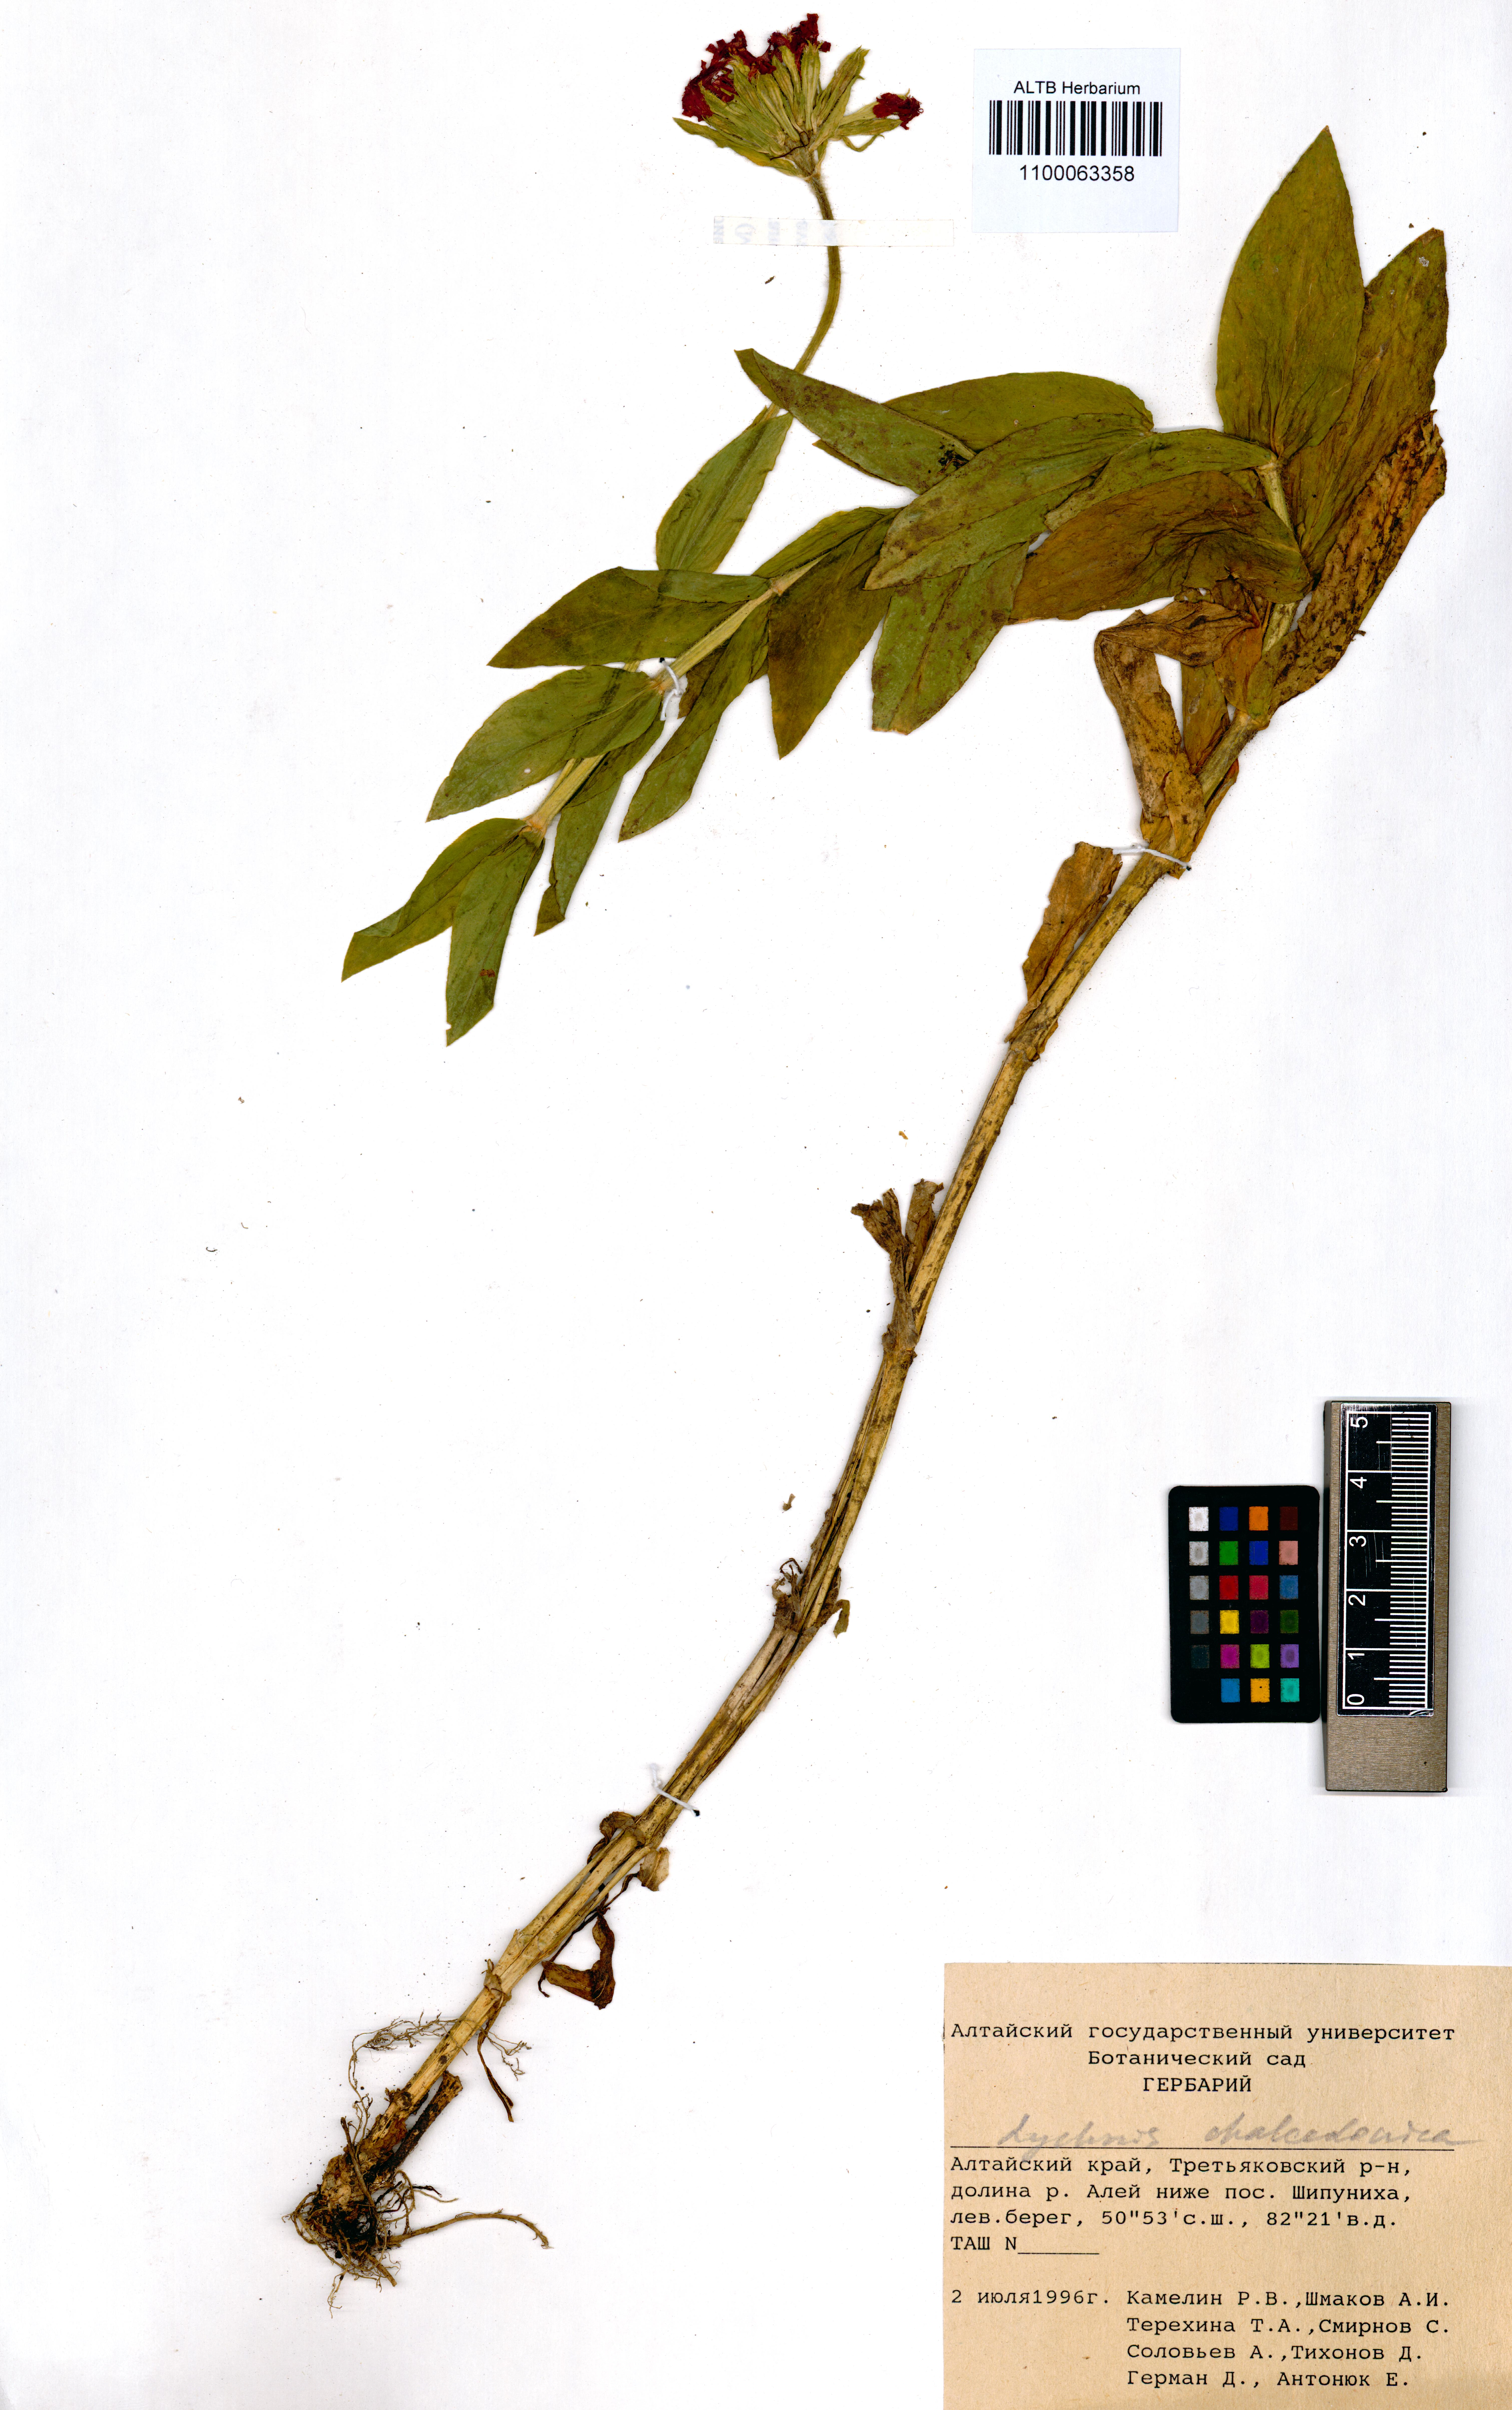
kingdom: Plantae
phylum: Tracheophyta
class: Magnoliopsida
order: Caryophyllales
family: Caryophyllaceae
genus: Silene
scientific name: Silene chalcedonica
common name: Maltese-cross
